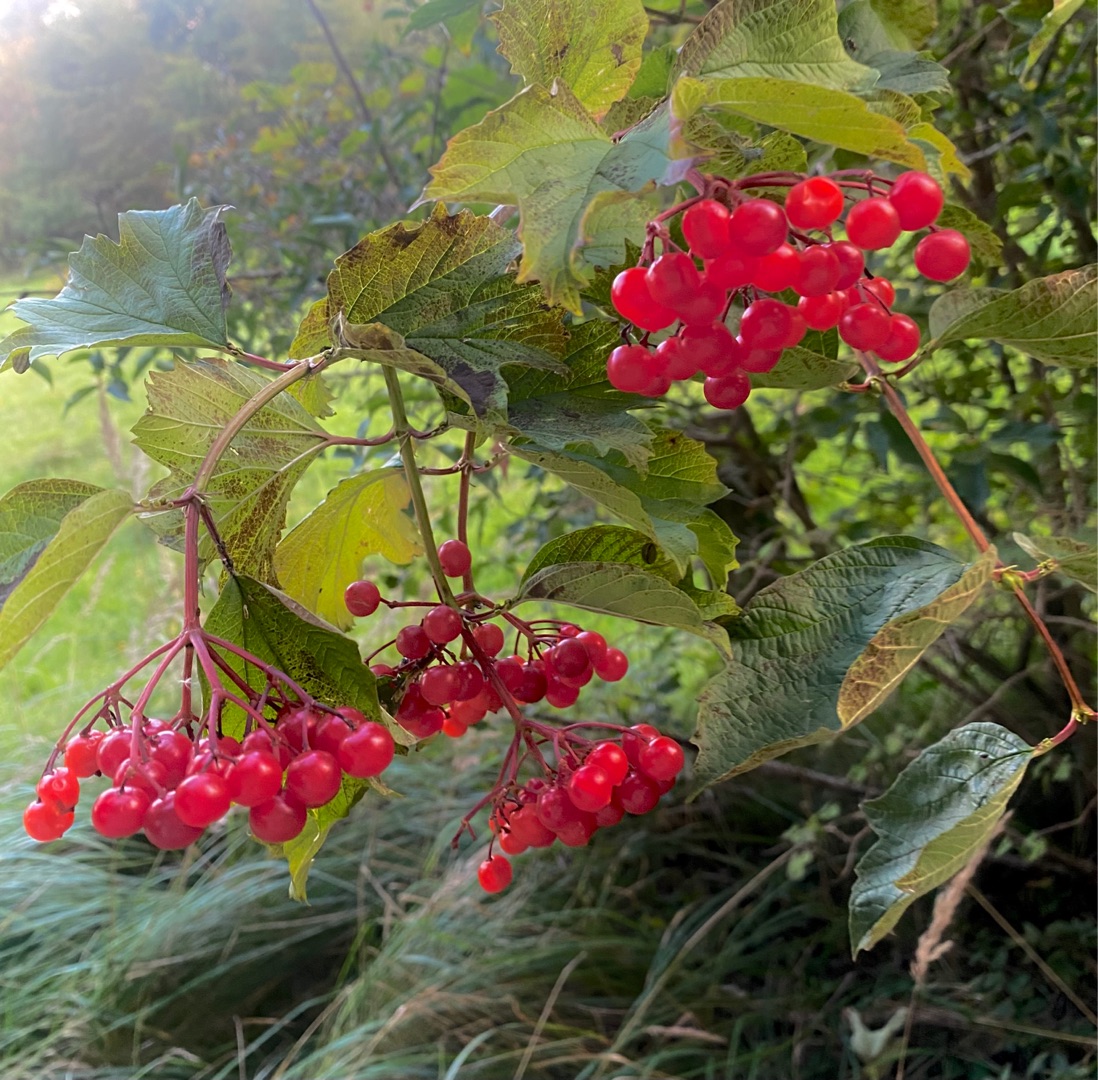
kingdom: Plantae
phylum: Tracheophyta
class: Magnoliopsida
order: Dipsacales
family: Viburnaceae
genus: Viburnum
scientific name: Viburnum opulus
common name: Kvalkved
